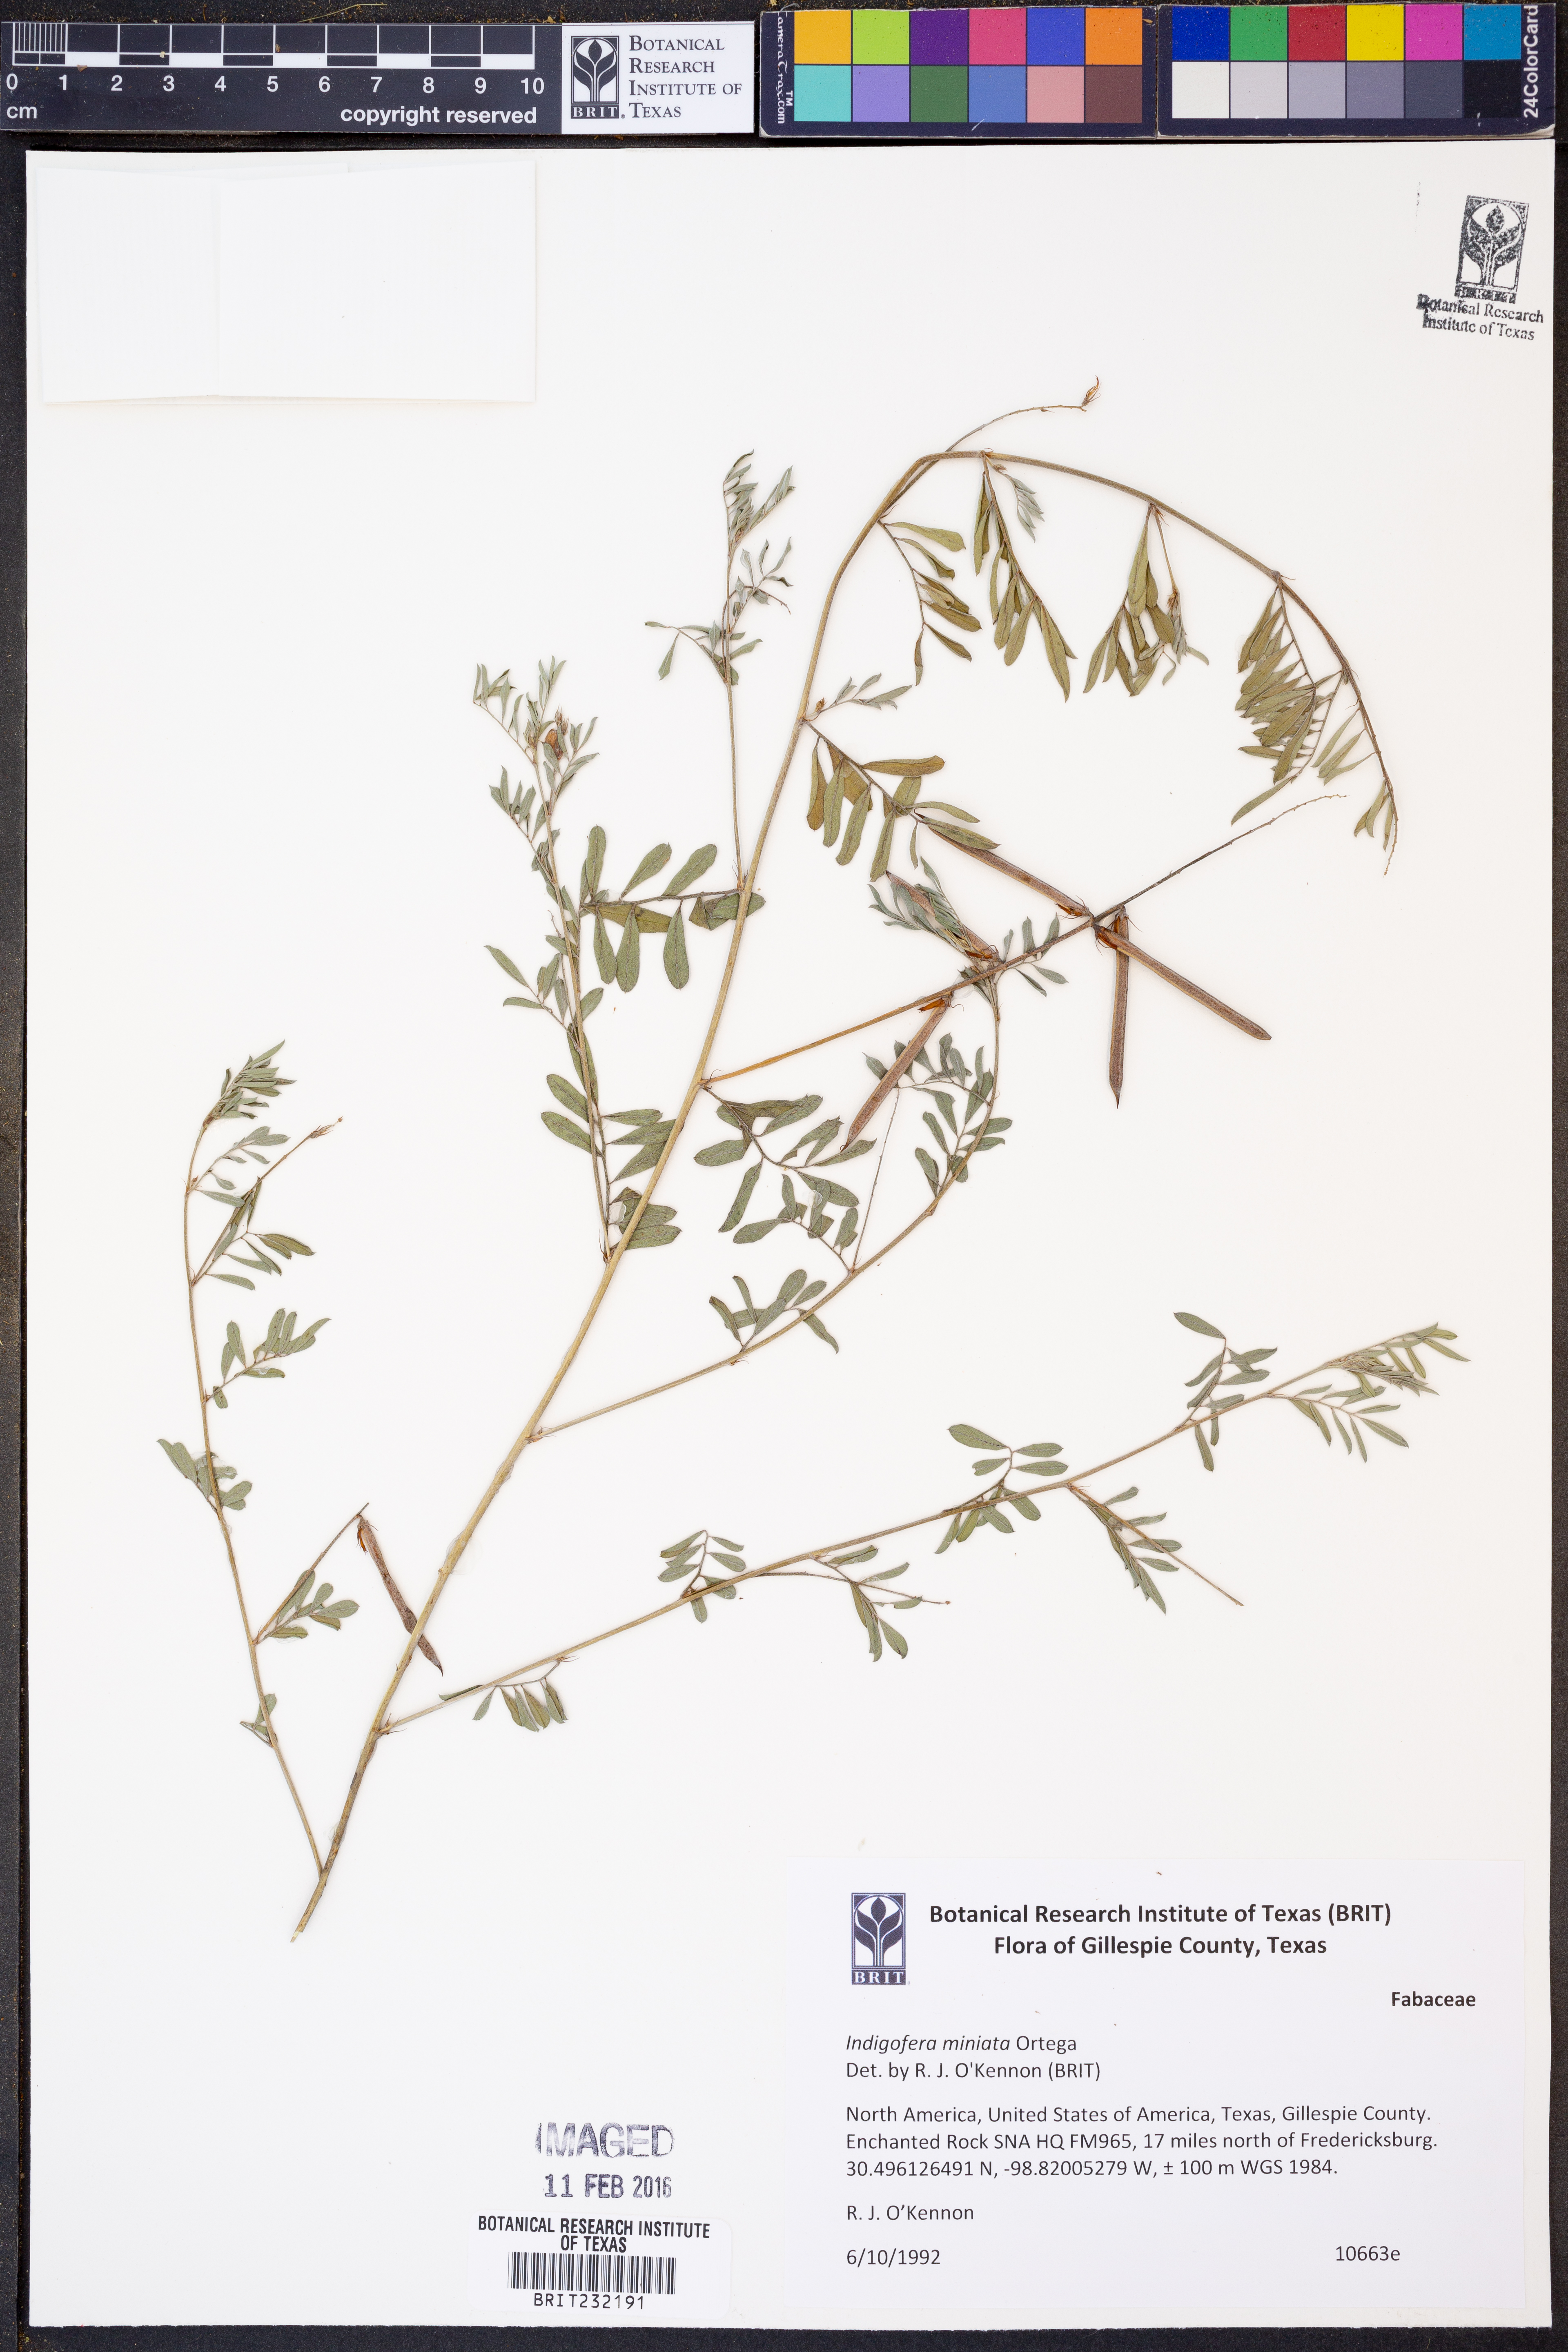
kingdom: Plantae
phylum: Tracheophyta
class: Magnoliopsida
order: Fabales
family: Fabaceae
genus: Indigofera
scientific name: Indigofera miniata
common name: Coast indigo
